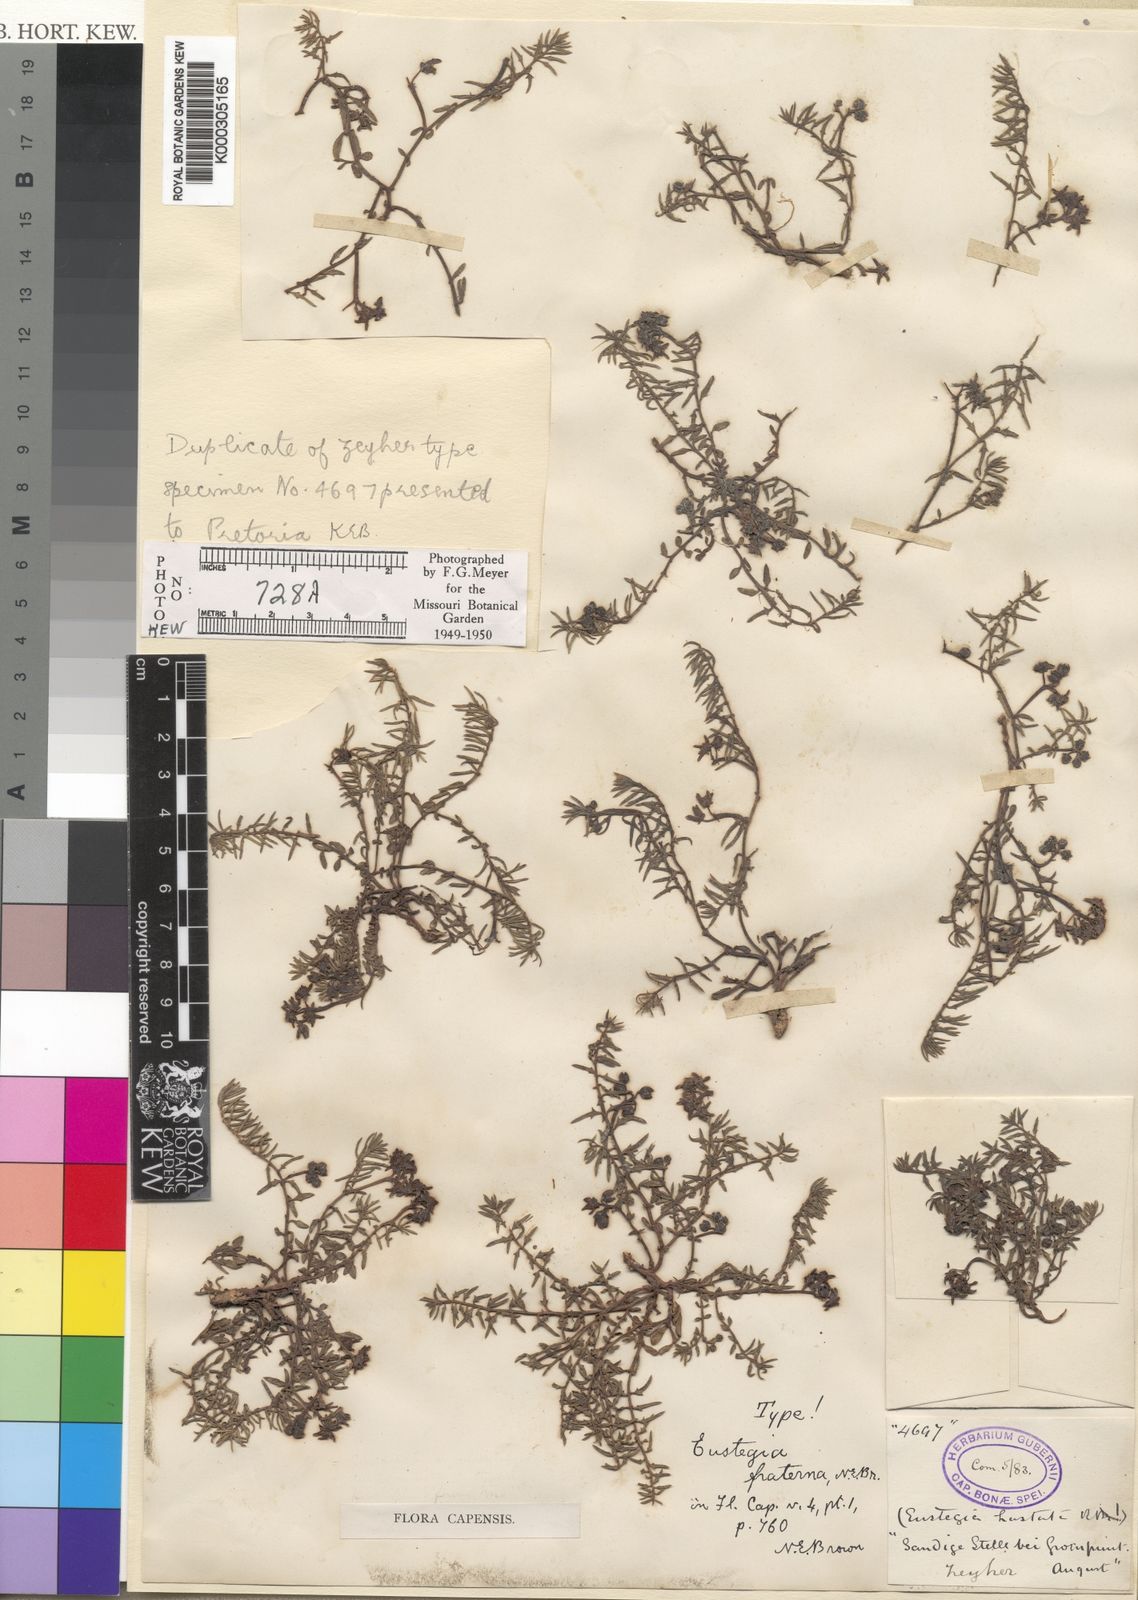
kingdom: Plantae
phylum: Tracheophyta
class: Magnoliopsida
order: Gentianales
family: Apocynaceae
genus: Eustegia
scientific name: Eustegia fraterna
